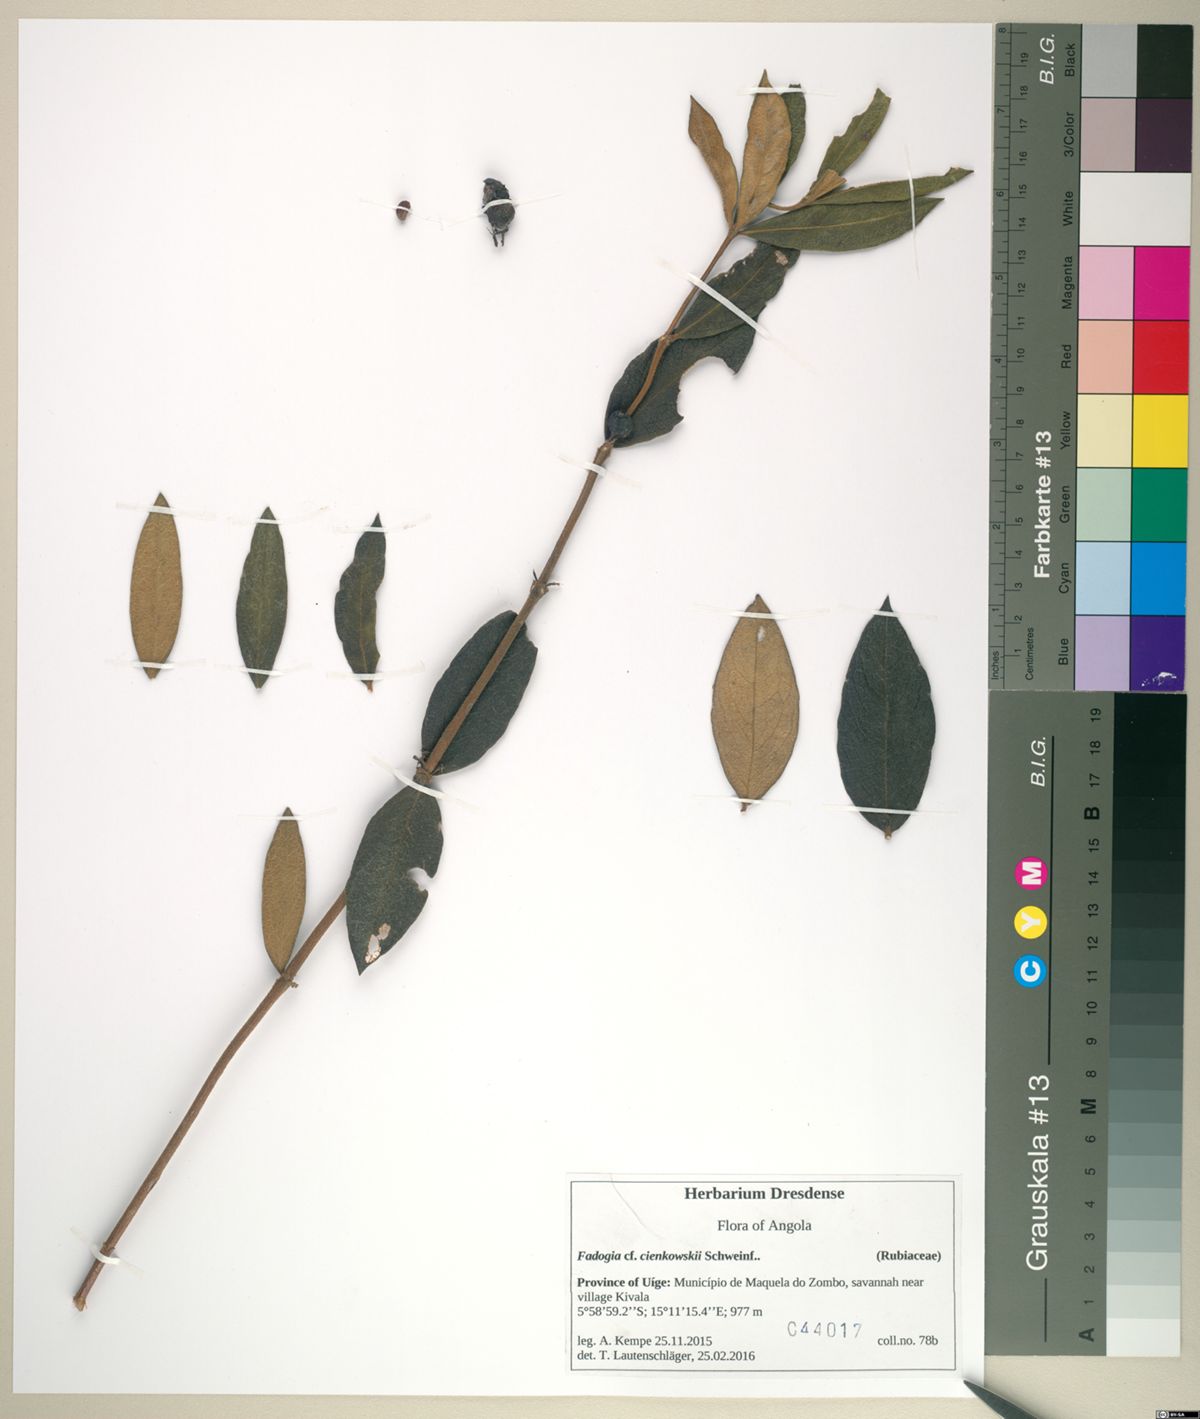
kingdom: Plantae
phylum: Tracheophyta
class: Magnoliopsida
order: Gentianales
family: Rubiaceae
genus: Fadogia
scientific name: Fadogia cienkowskii
